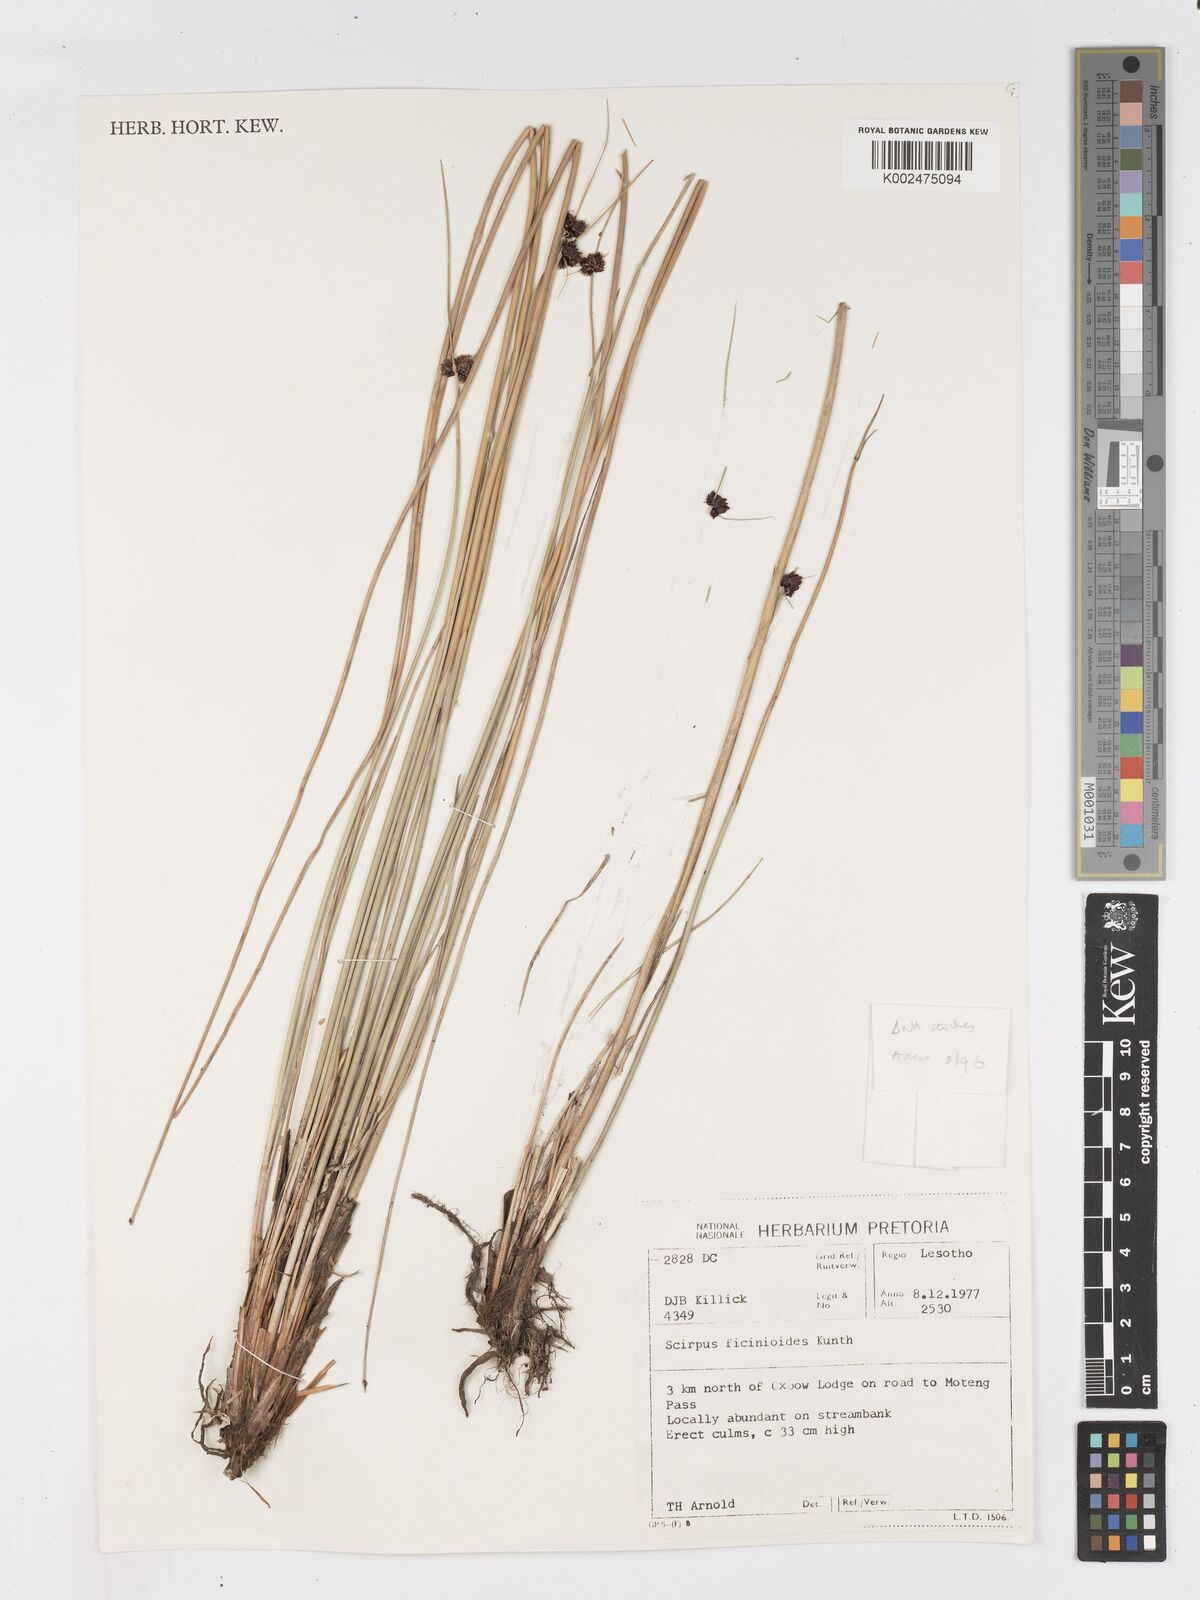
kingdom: Plantae
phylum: Tracheophyta
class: Liliopsida
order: Poales
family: Cyperaceae
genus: Ficinia
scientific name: Ficinia
